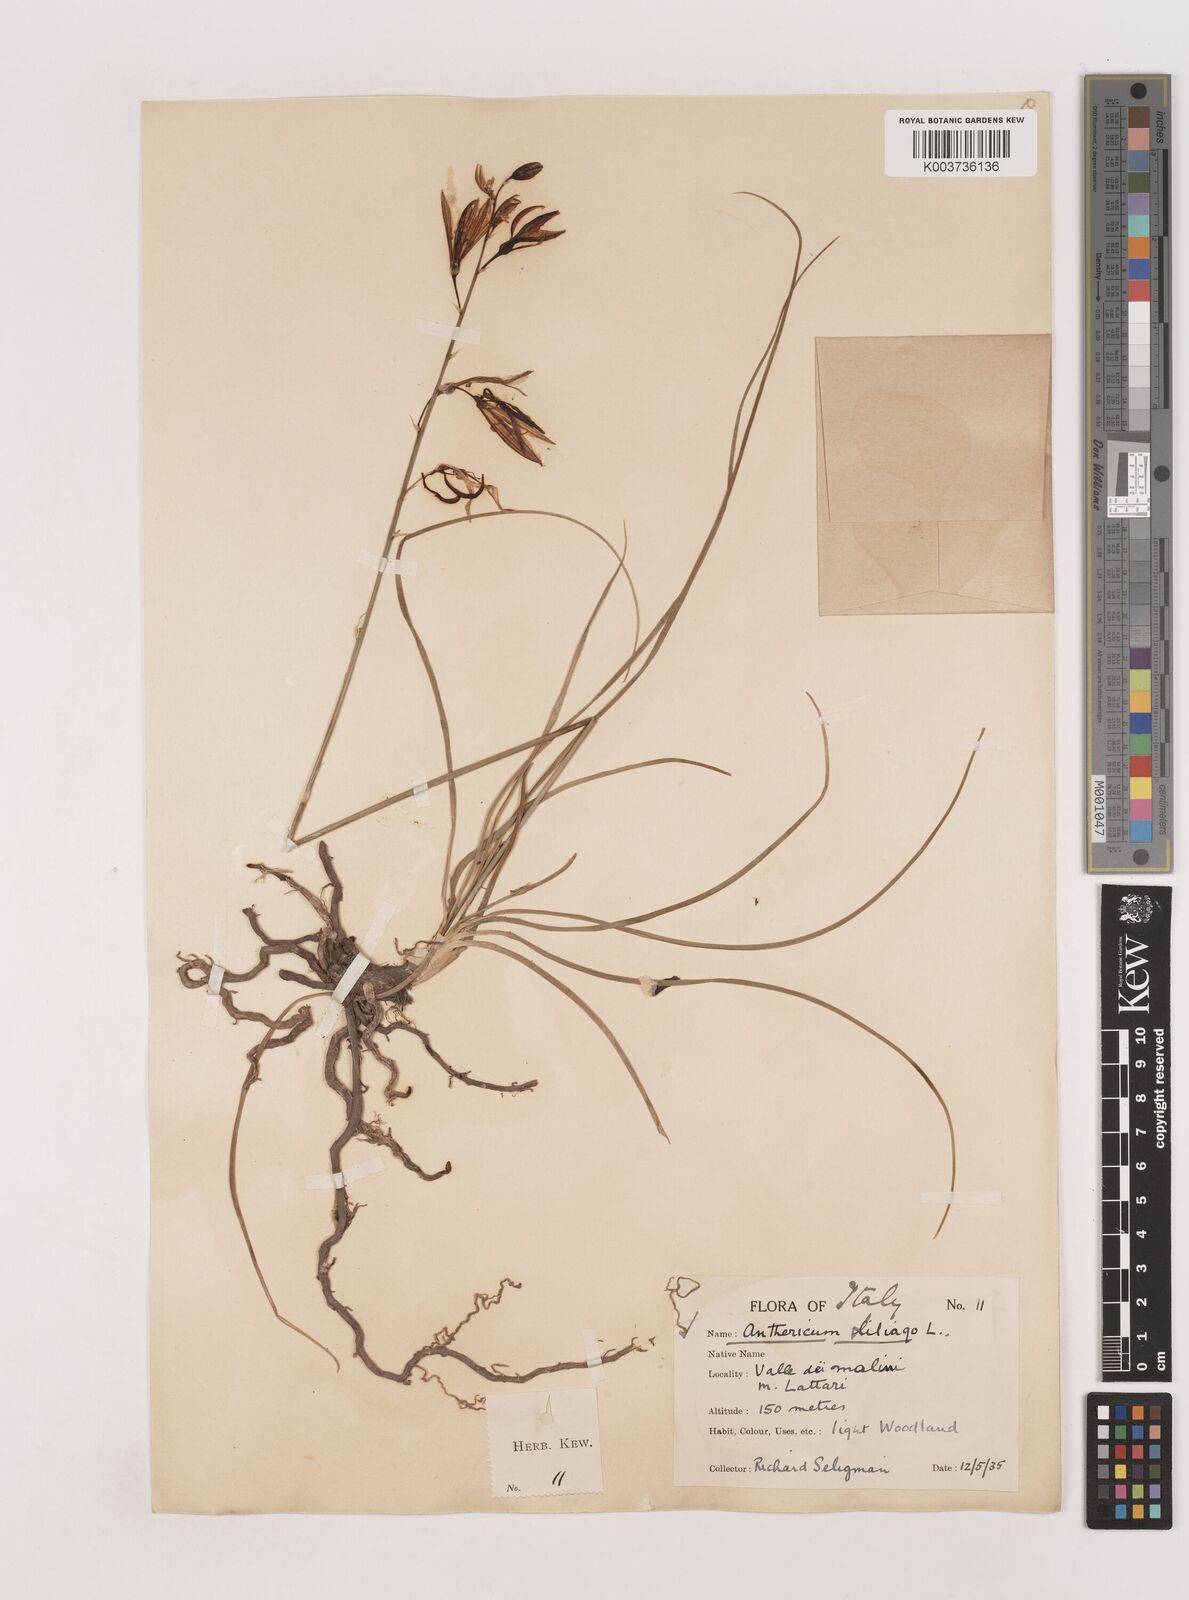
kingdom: Plantae
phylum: Tracheophyta
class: Liliopsida
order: Asparagales
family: Asparagaceae
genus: Anthericum
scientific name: Anthericum liliago
